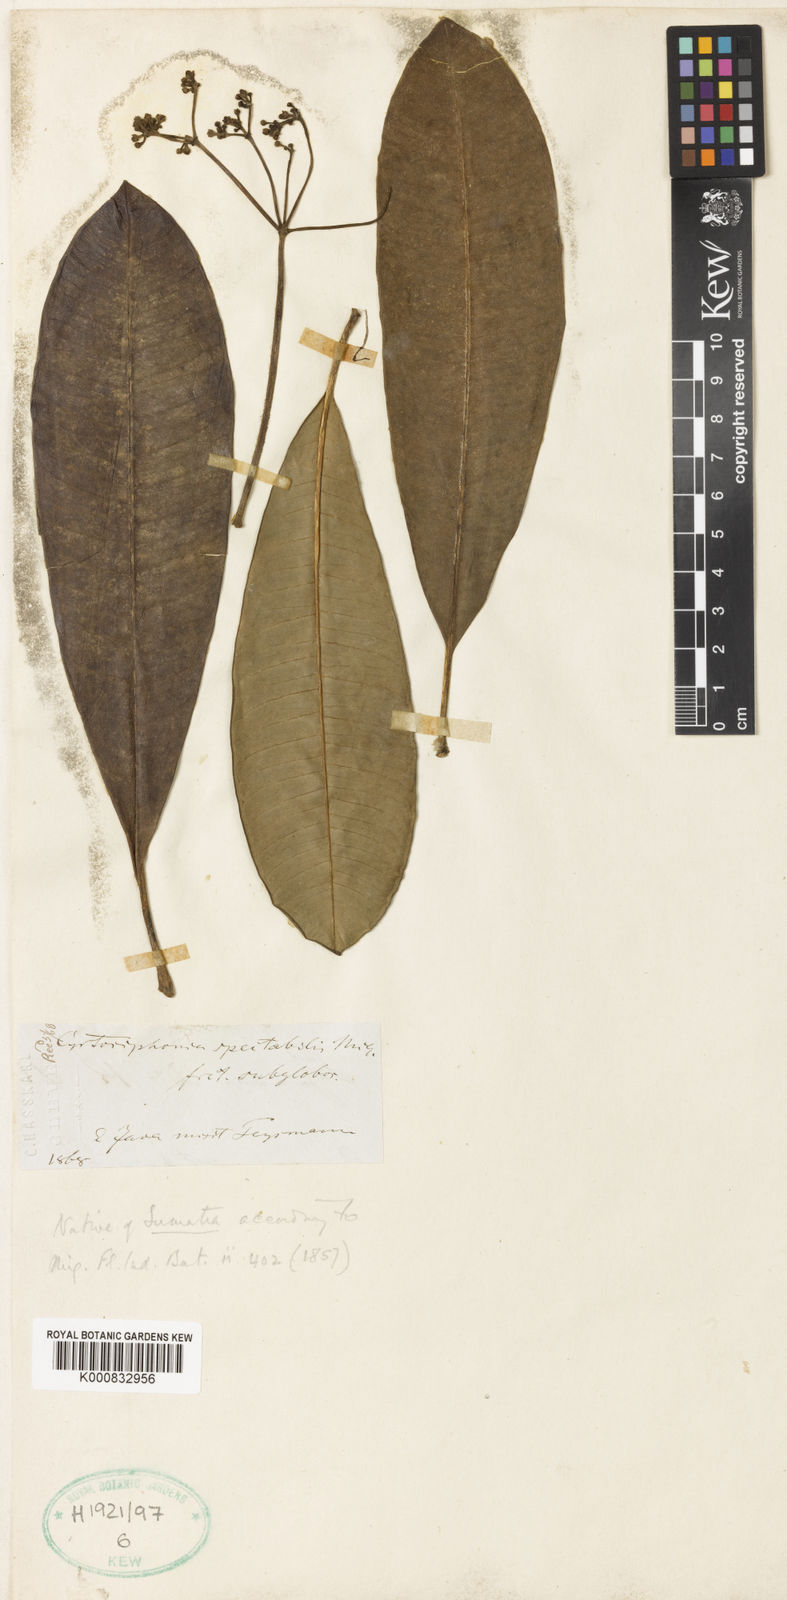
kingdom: Plantae
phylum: Tracheophyta
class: Magnoliopsida
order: Gentianales
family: Apocynaceae
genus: Rauvolfia
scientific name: Rauvolfia sumatrana
